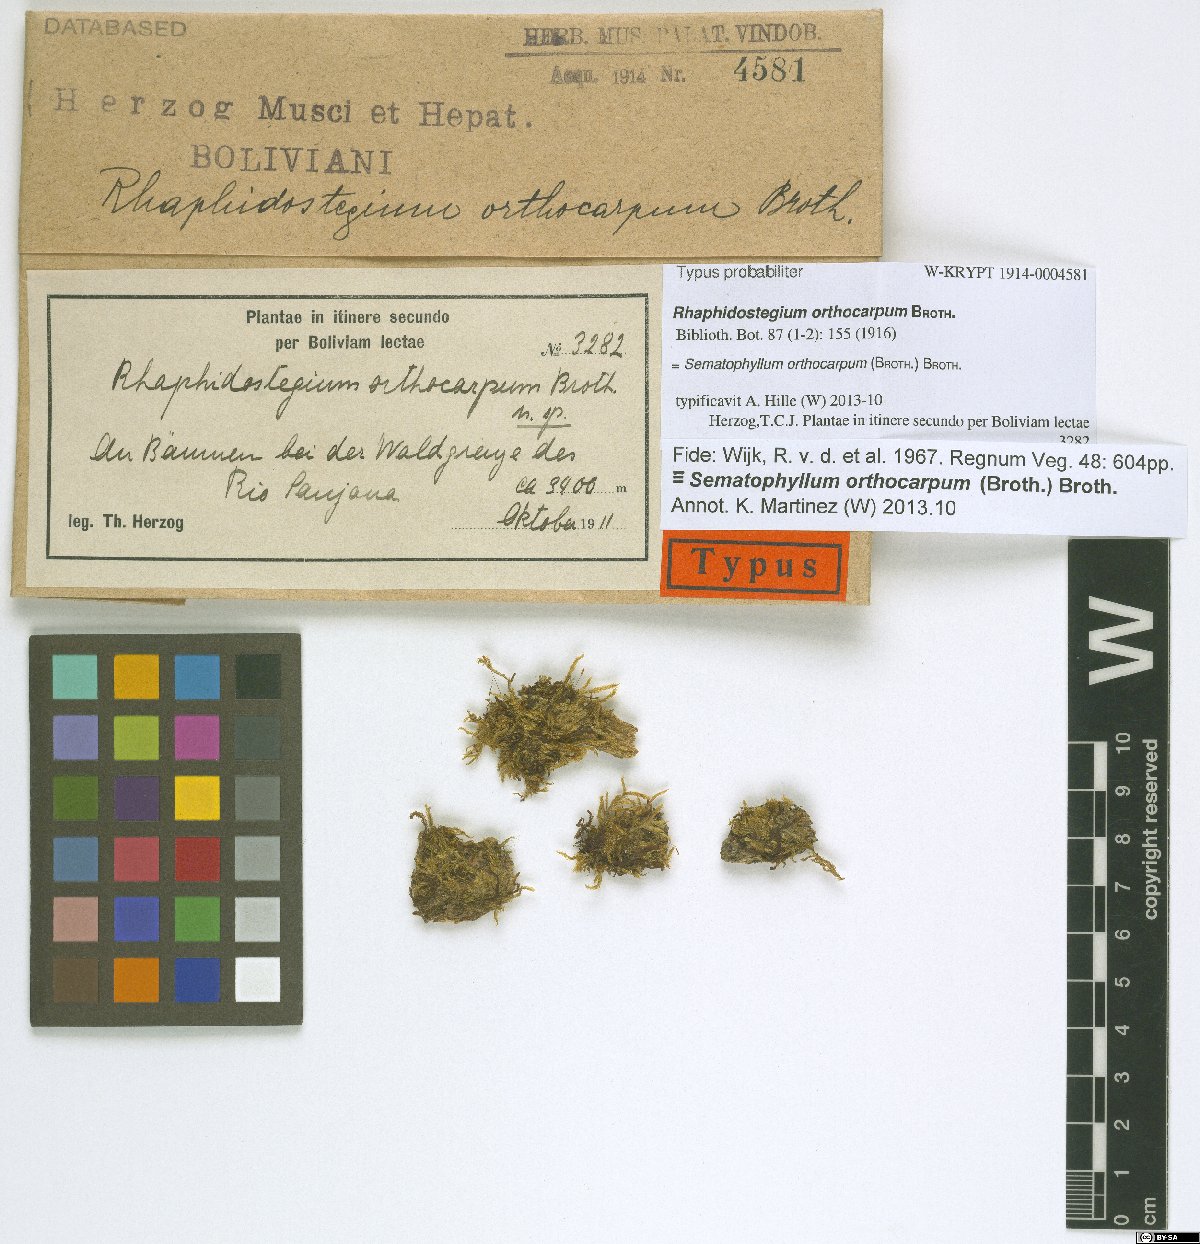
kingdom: Plantae
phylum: Bryophyta
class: Bryopsida
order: Hypnales
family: Sematophyllaceae
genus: Sematophyllum
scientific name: Sematophyllum orthocarpum
